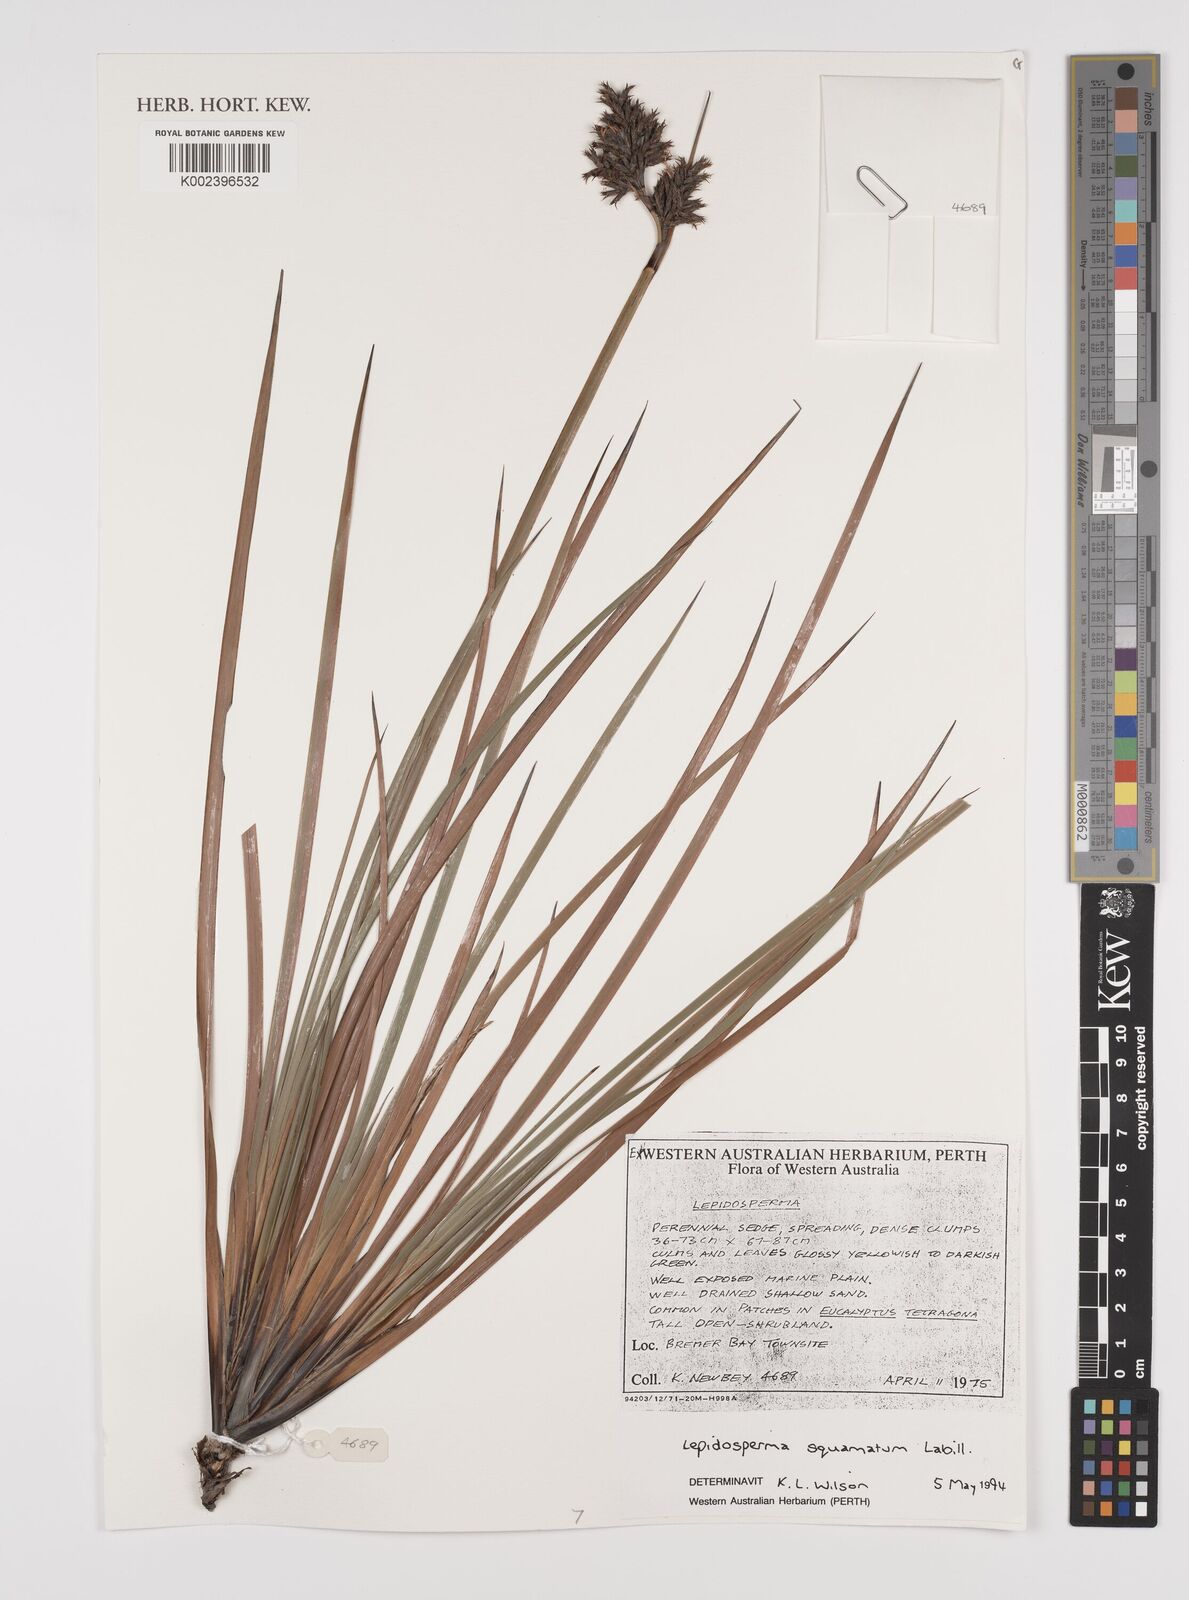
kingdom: Plantae
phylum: Tracheophyta
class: Liliopsida
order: Poales
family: Cyperaceae
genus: Lepidosperma
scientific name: Lepidosperma squamatum
